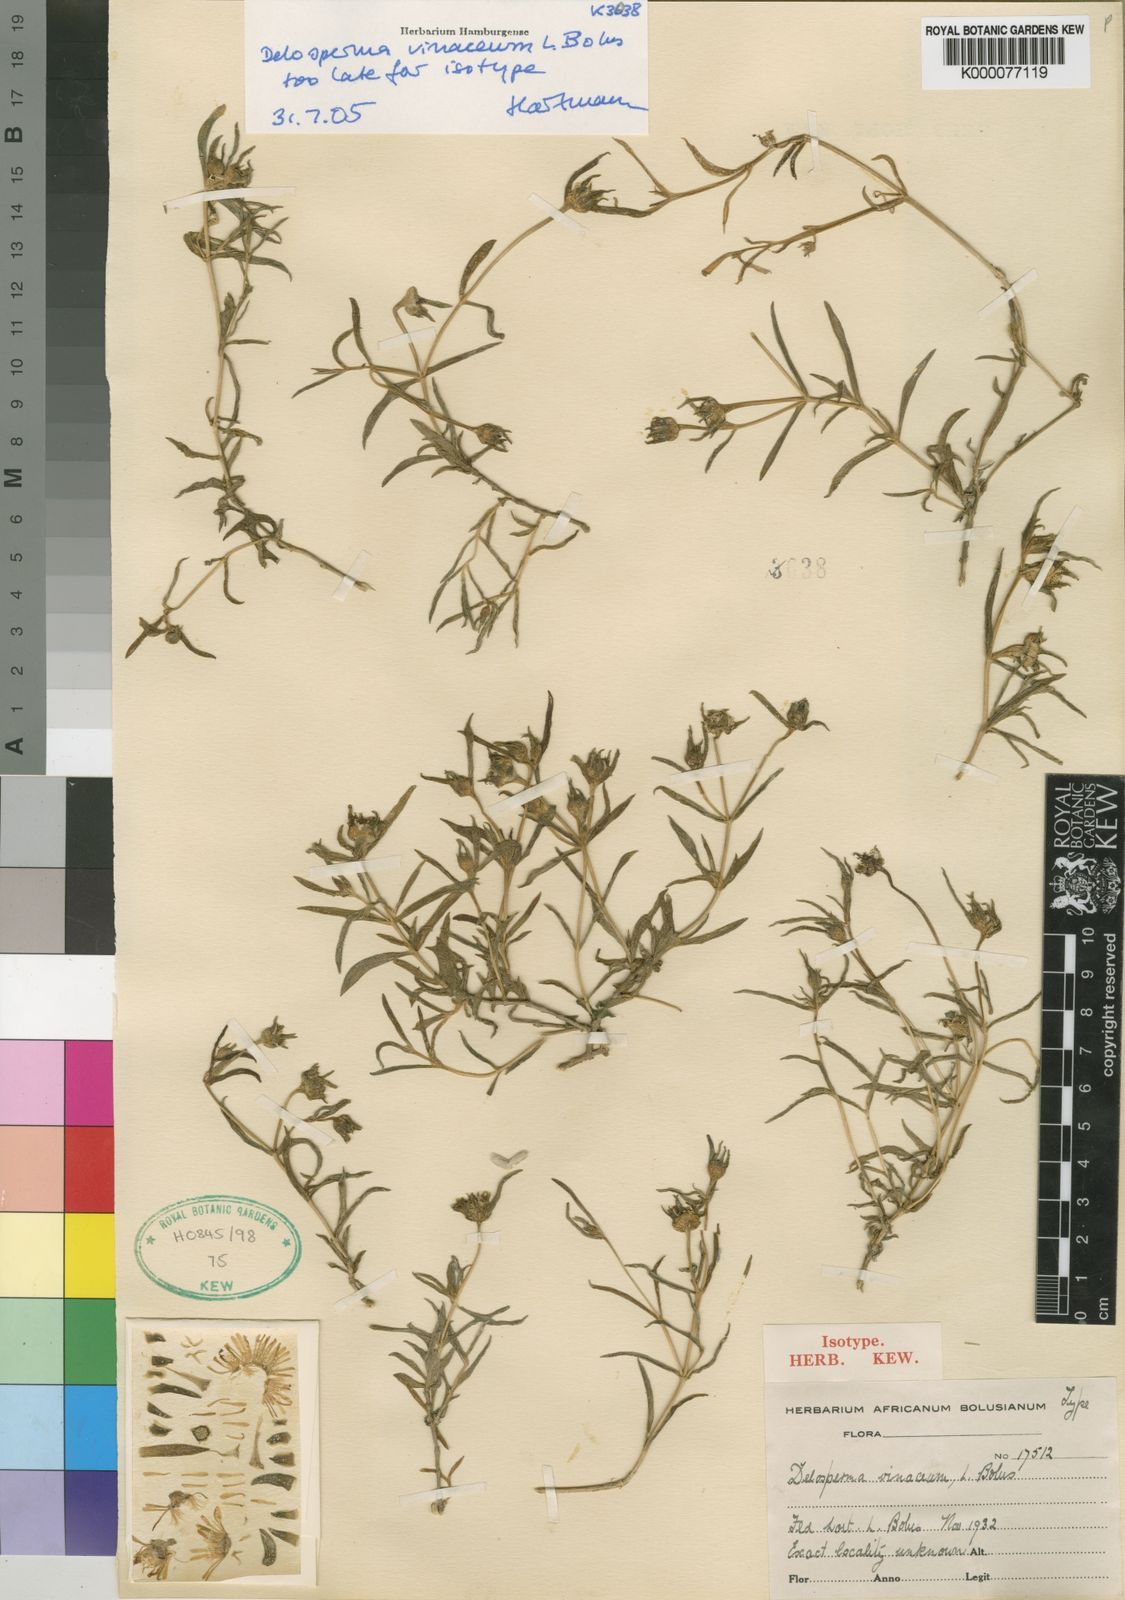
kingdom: Plantae
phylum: Tracheophyta
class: Magnoliopsida
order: Caryophyllales
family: Aizoaceae
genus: Delosperma
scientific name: Delosperma vinaceum
